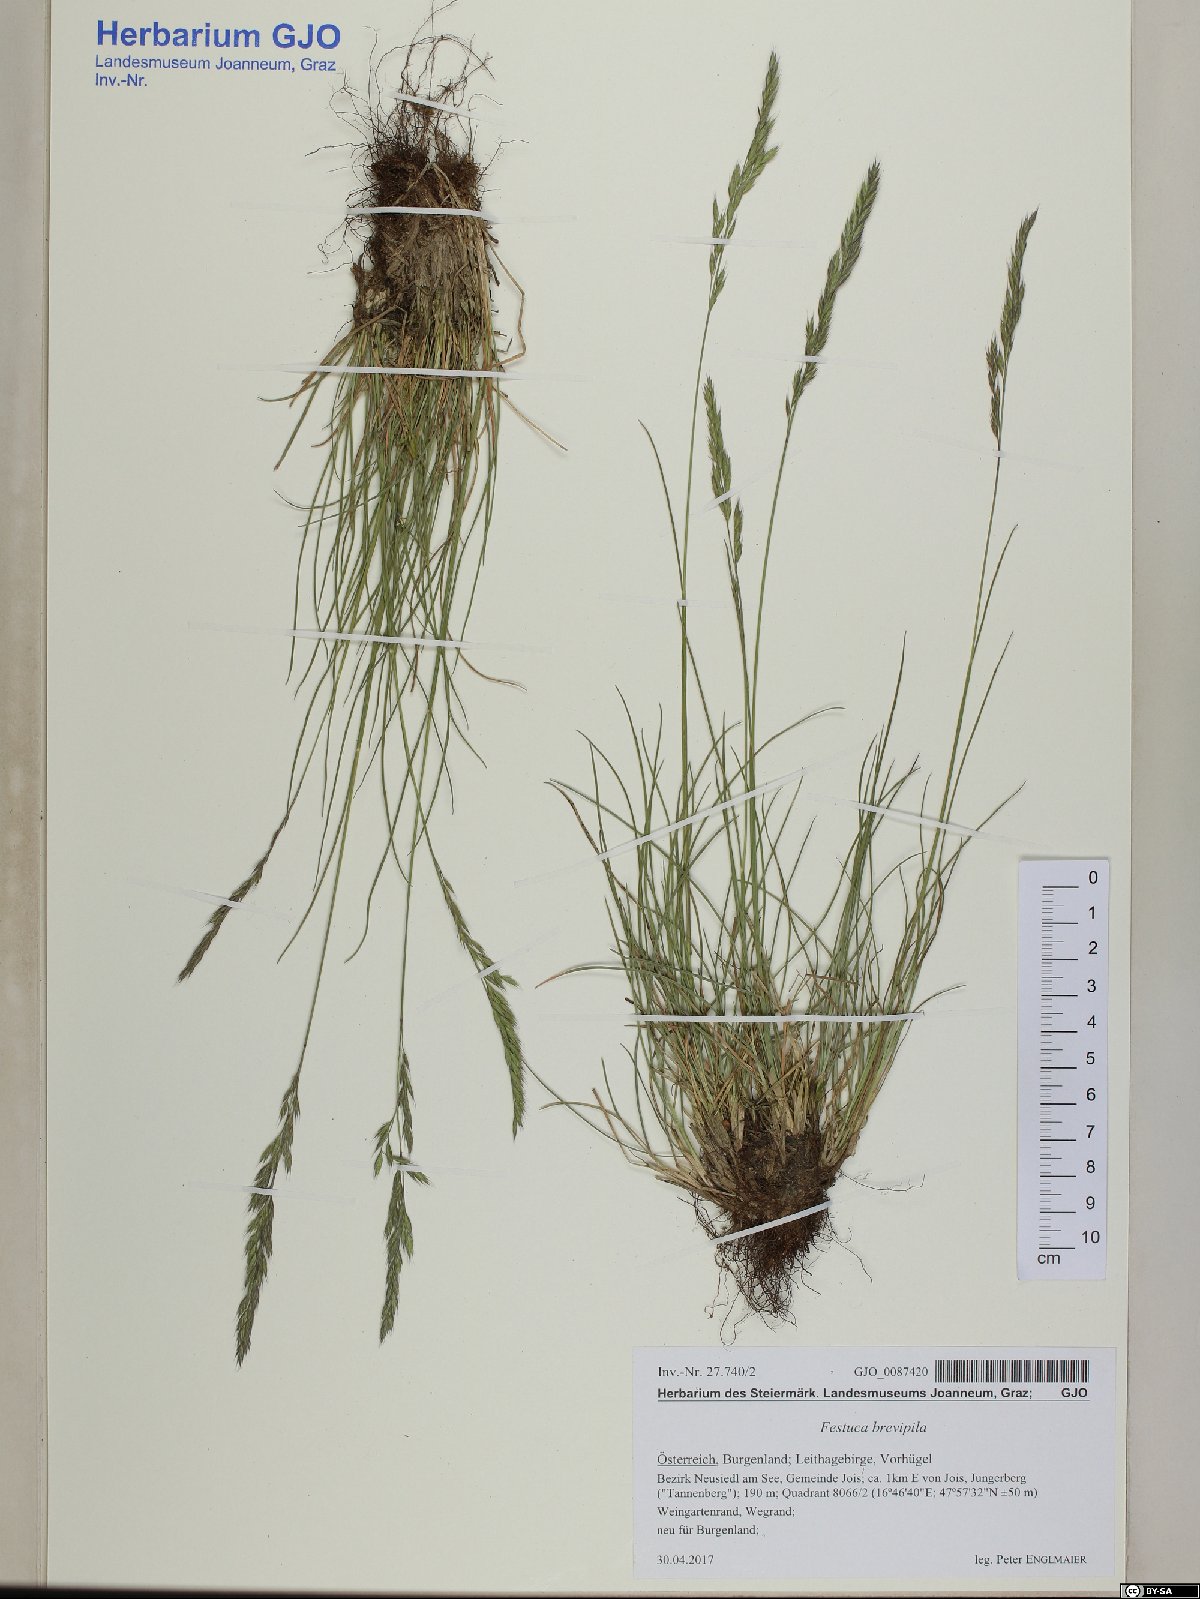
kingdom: Plantae
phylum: Tracheophyta
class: Liliopsida
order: Poales
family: Poaceae
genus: Festuca
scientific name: Festuca trachyphylla
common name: Hard fescue
